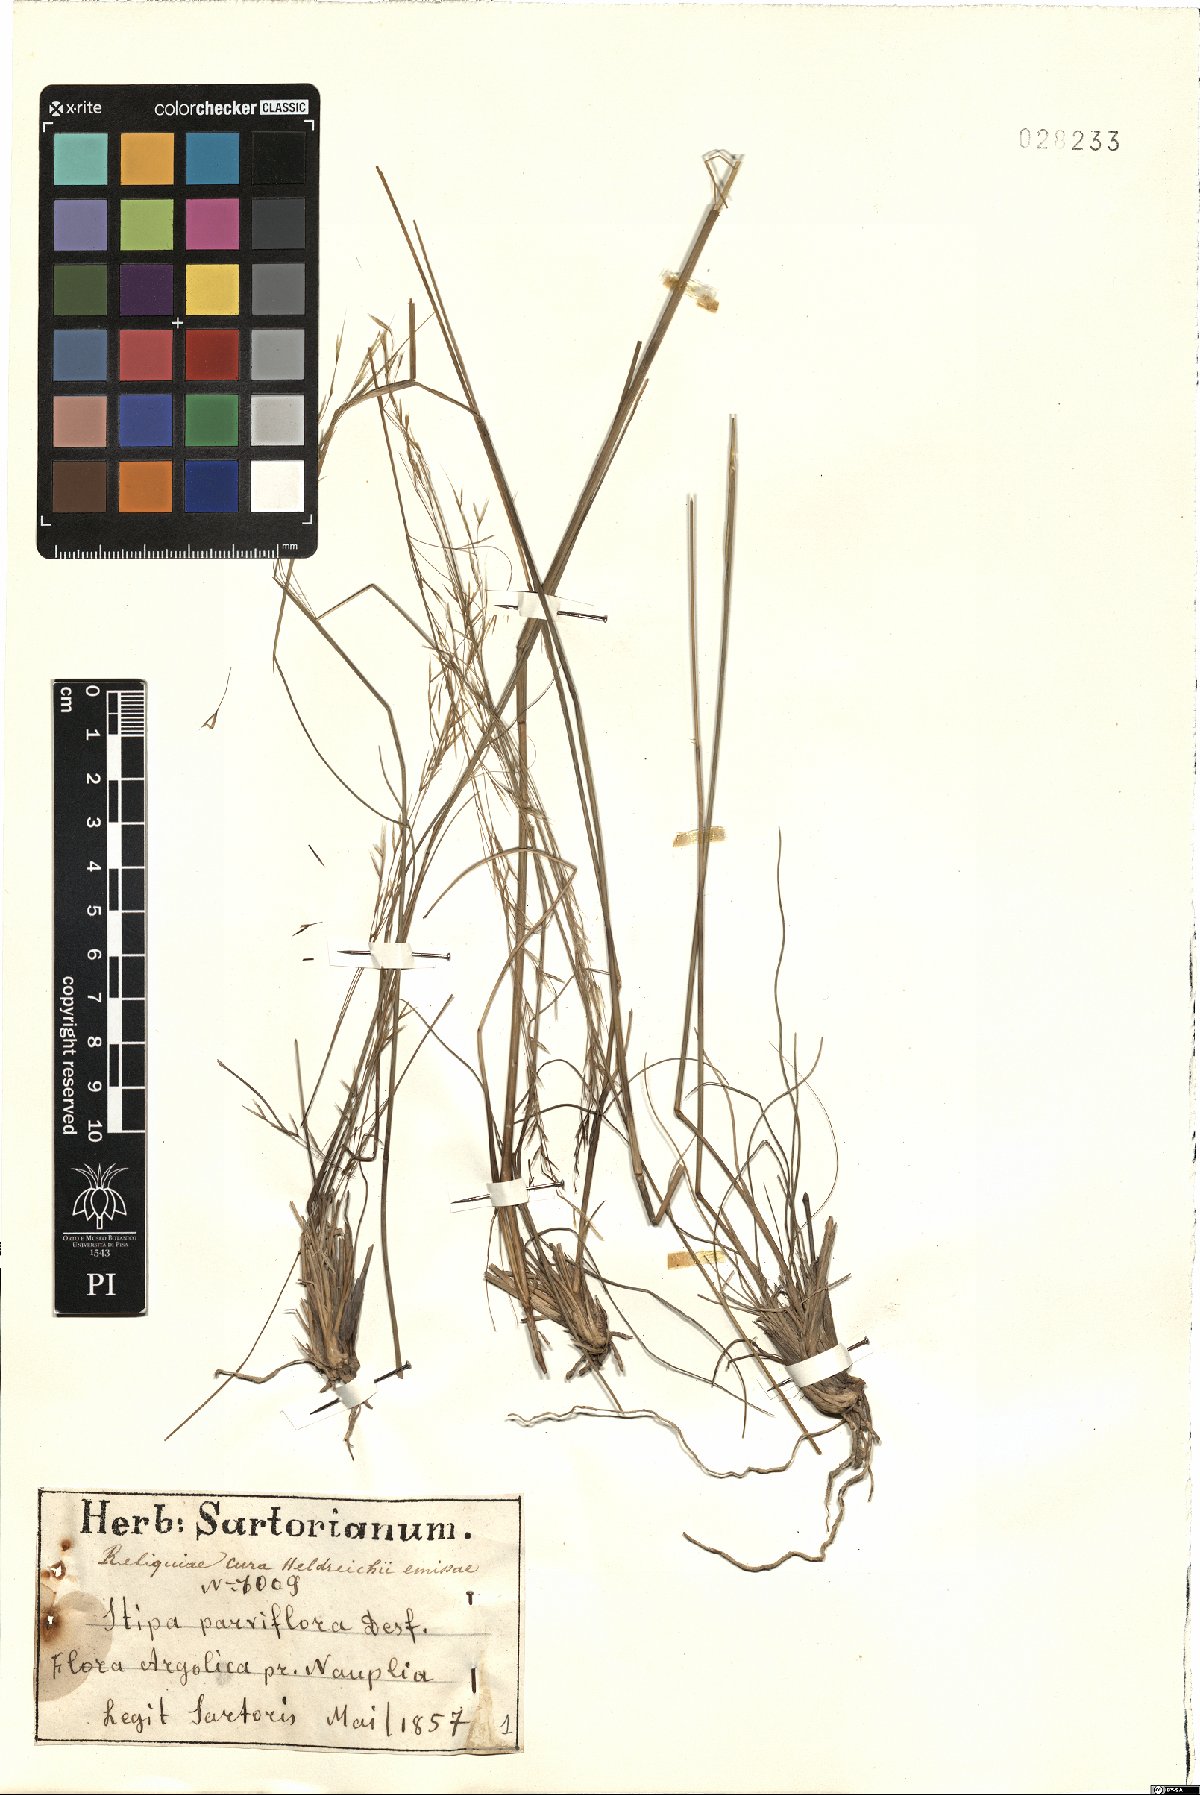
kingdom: Plantae
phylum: Tracheophyta
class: Liliopsida
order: Poales
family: Poaceae
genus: Achnatherum
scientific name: Achnatherum parviflorum
